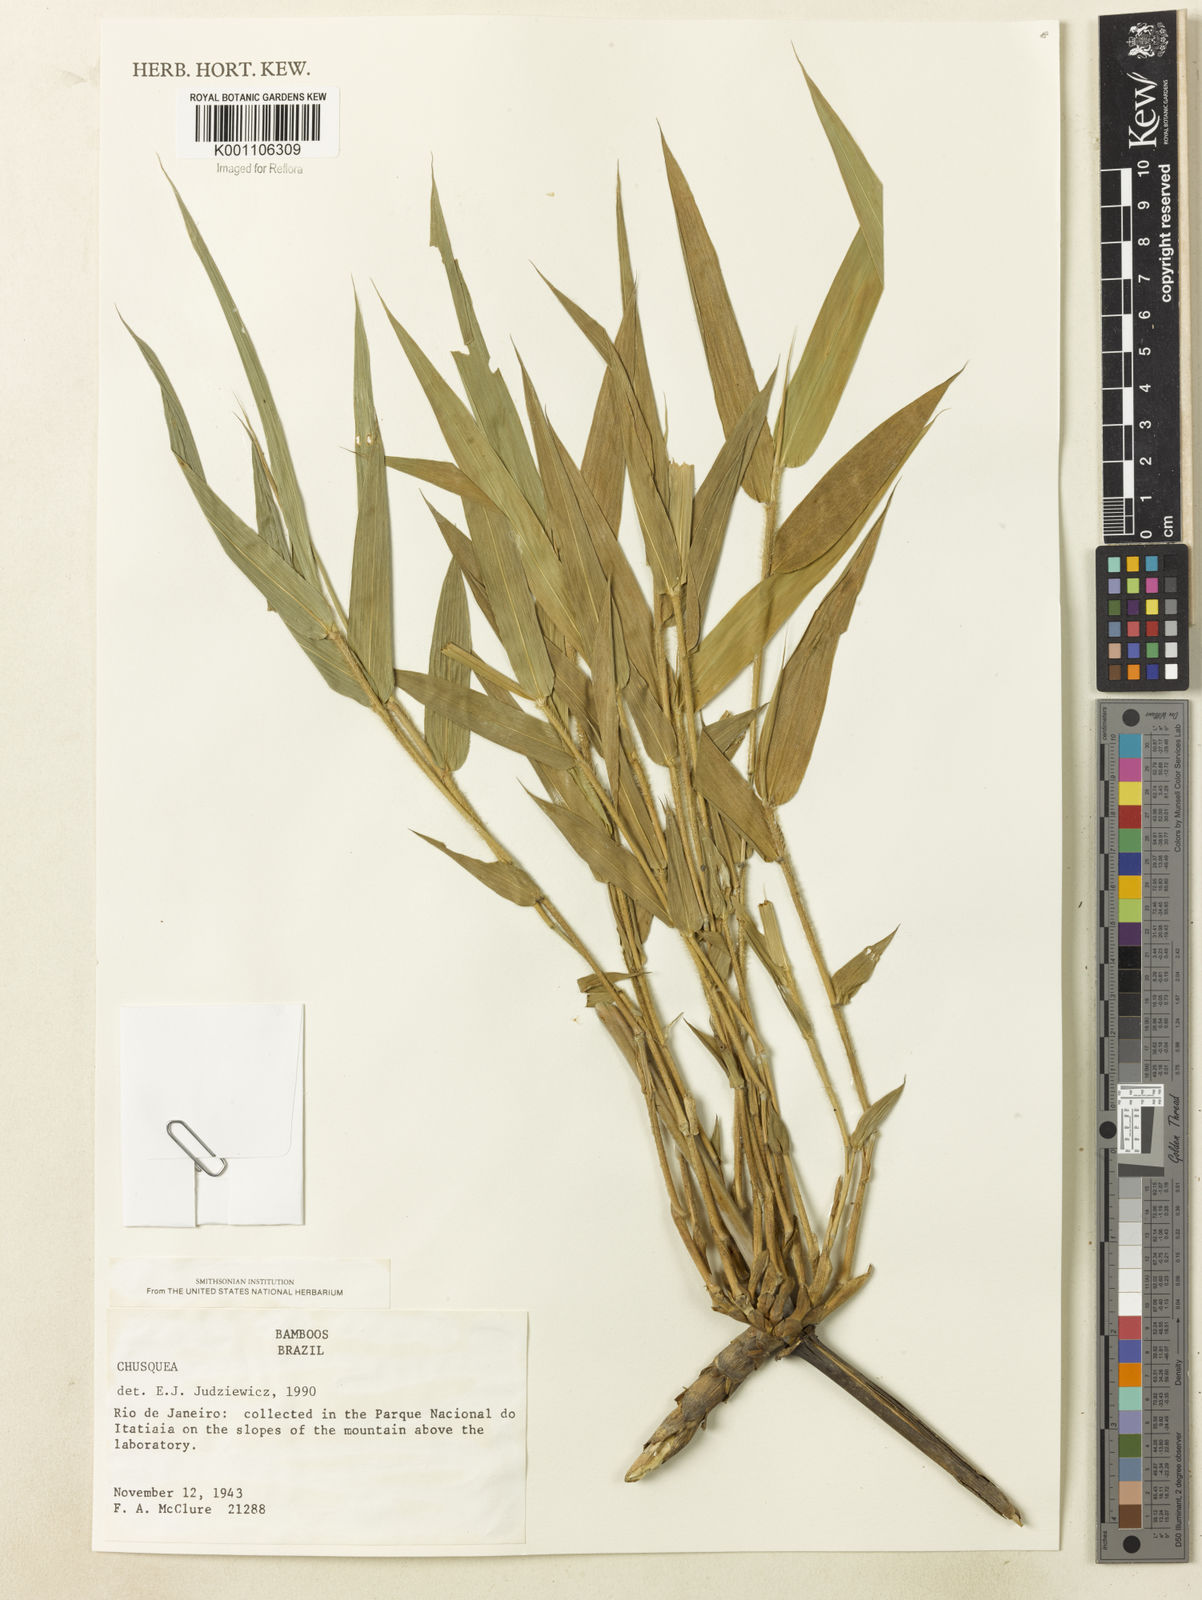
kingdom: Plantae
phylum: Tracheophyta
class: Liliopsida
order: Poales
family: Poaceae
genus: Chusquea
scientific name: Chusquea anelythra
